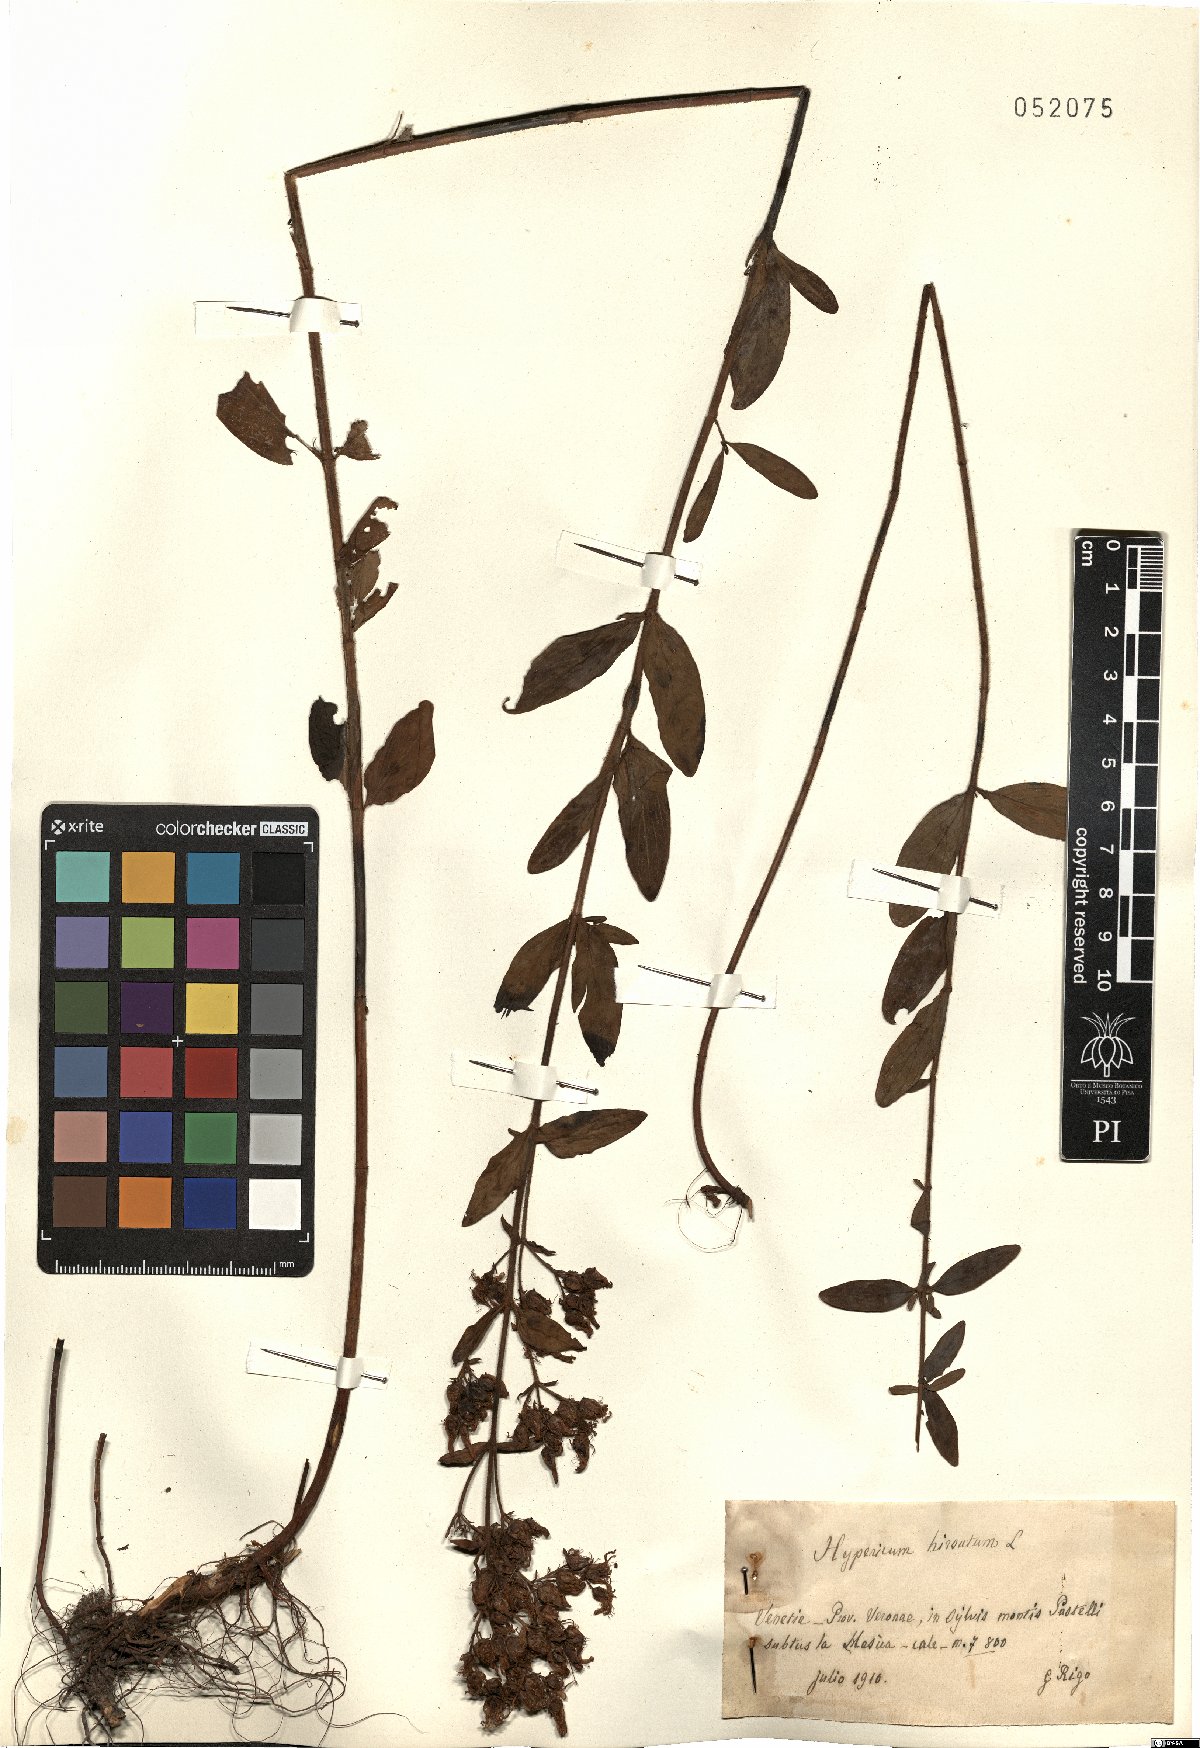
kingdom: Plantae
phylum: Tracheophyta
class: Magnoliopsida
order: Malpighiales
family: Hypericaceae
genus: Hypericum
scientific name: Hypericum hirsutum
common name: Hairy st. john's-wort
